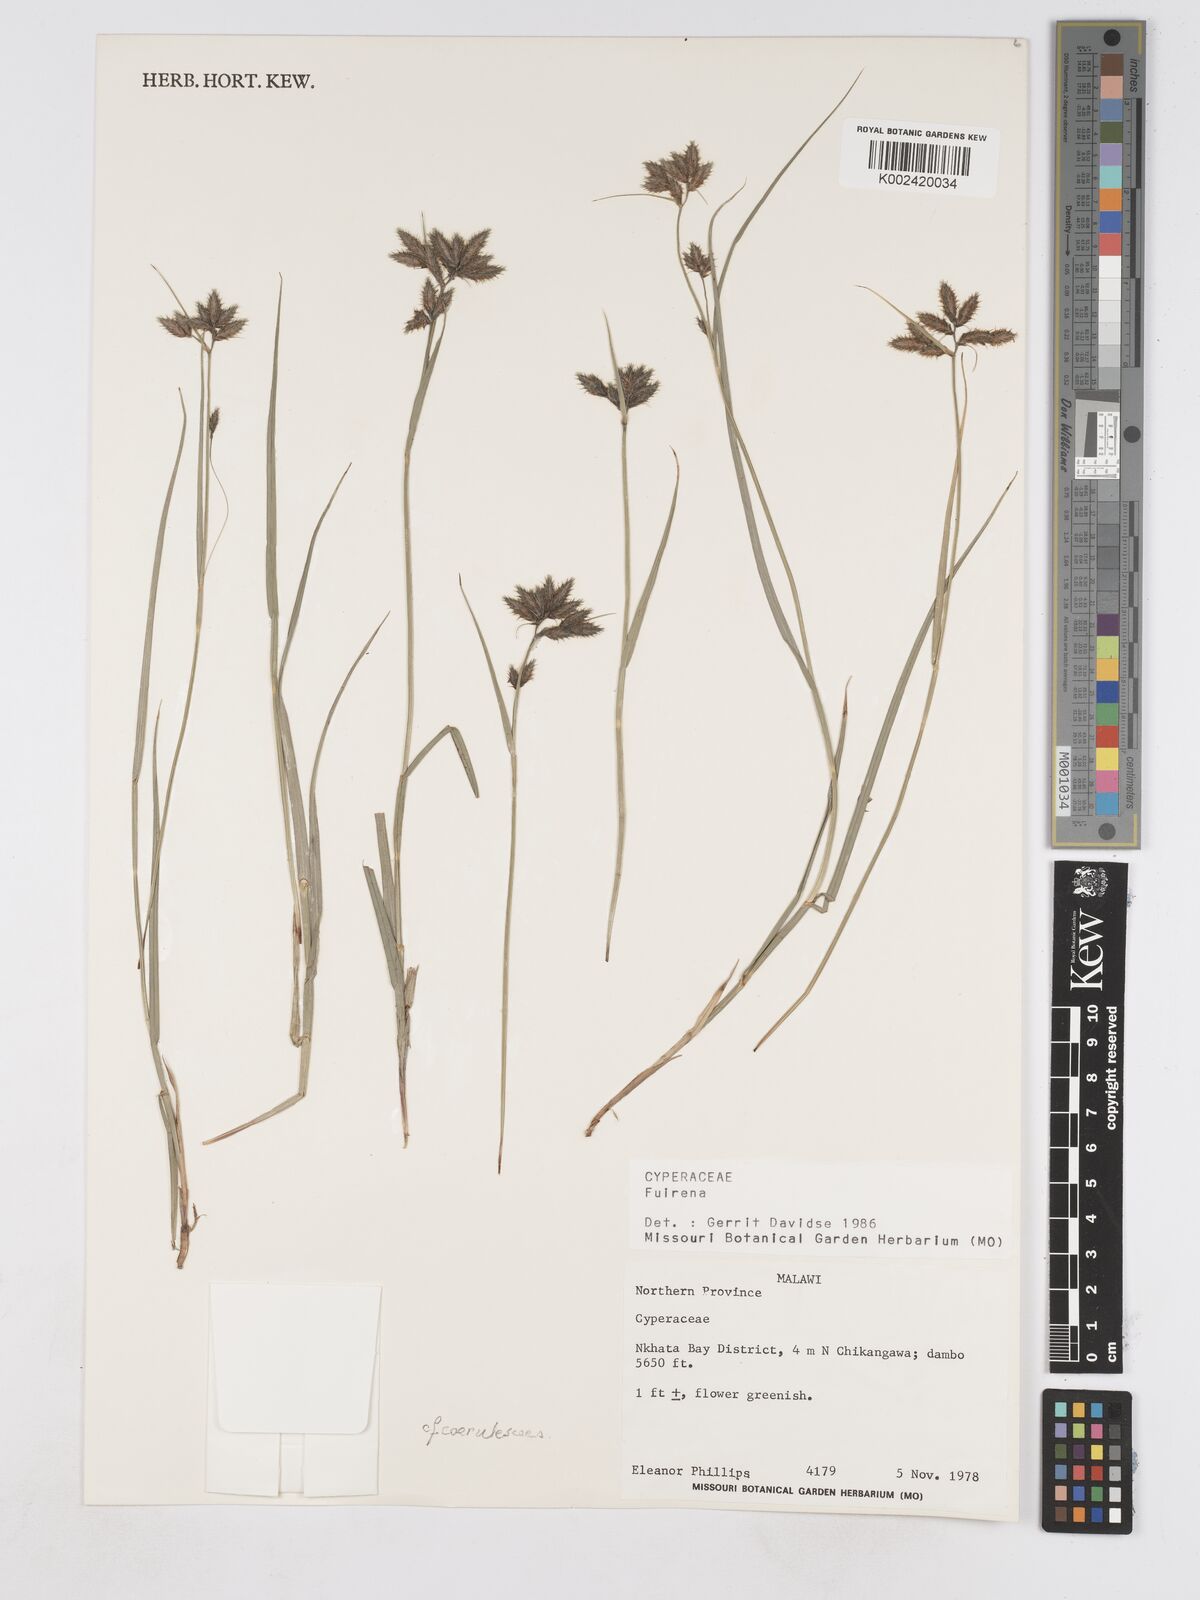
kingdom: Plantae
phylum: Tracheophyta
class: Liliopsida
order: Poales
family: Cyperaceae
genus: Fuirena
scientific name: Fuirena
